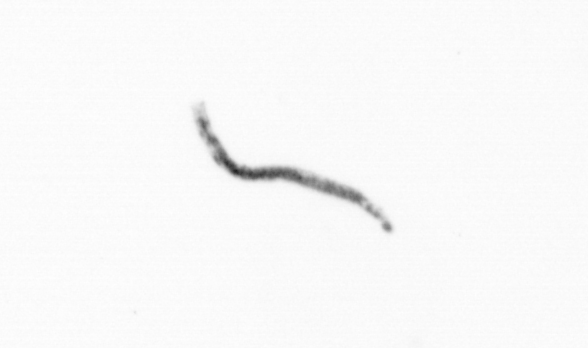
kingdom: Chromista
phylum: Ochrophyta
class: Bacillariophyceae
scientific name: Bacillariophyceae
